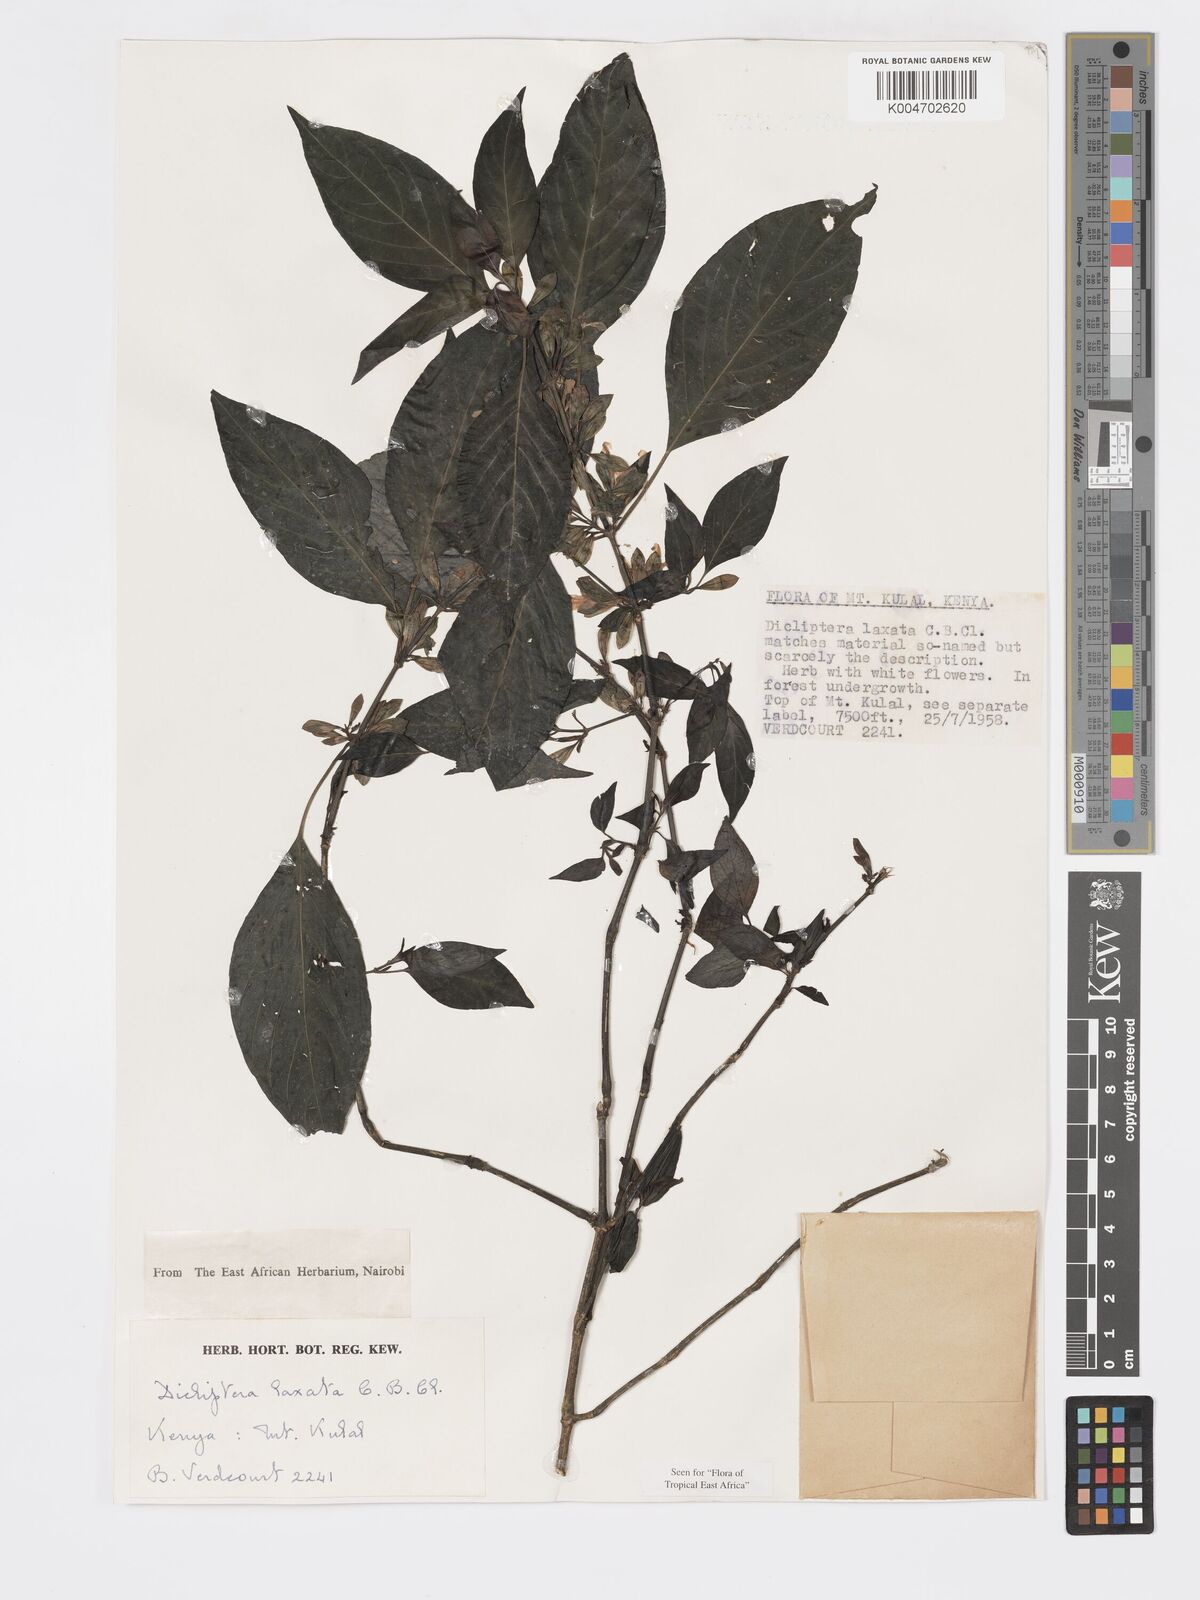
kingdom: Plantae
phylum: Tracheophyta
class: Magnoliopsida
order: Lamiales
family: Acanthaceae
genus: Dicliptera
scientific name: Dicliptera laxata
